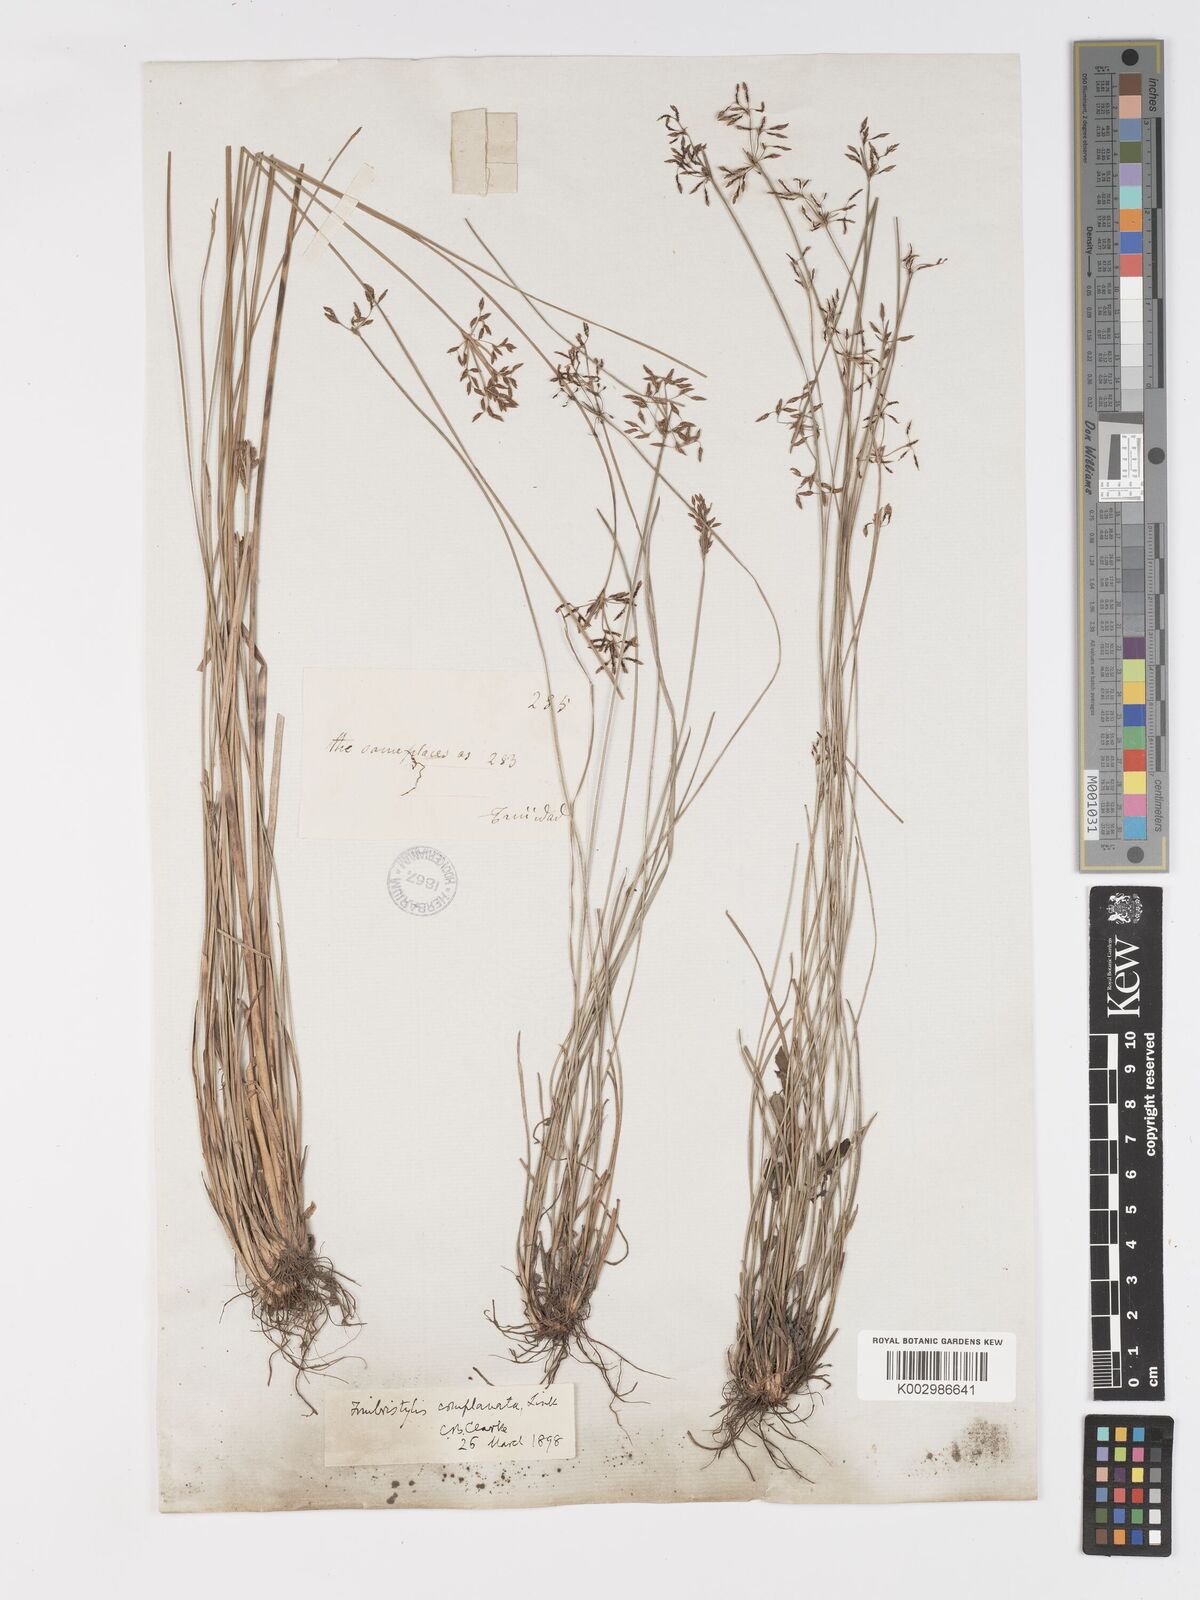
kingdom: Plantae
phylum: Tracheophyta
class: Liliopsida
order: Poales
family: Cyperaceae
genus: Fimbristylis
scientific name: Fimbristylis complanata
